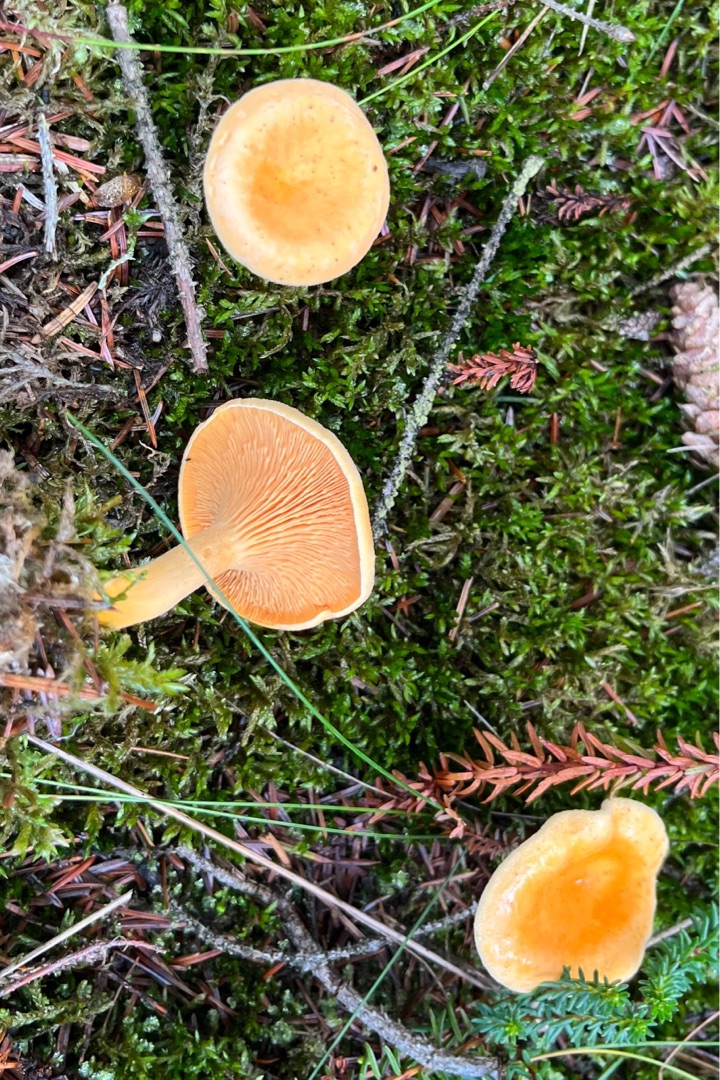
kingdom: Fungi
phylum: Basidiomycota
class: Agaricomycetes
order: Boletales
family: Hygrophoropsidaceae
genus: Hygrophoropsis
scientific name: Hygrophoropsis aurantiaca
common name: Almindelig orangekantarel
